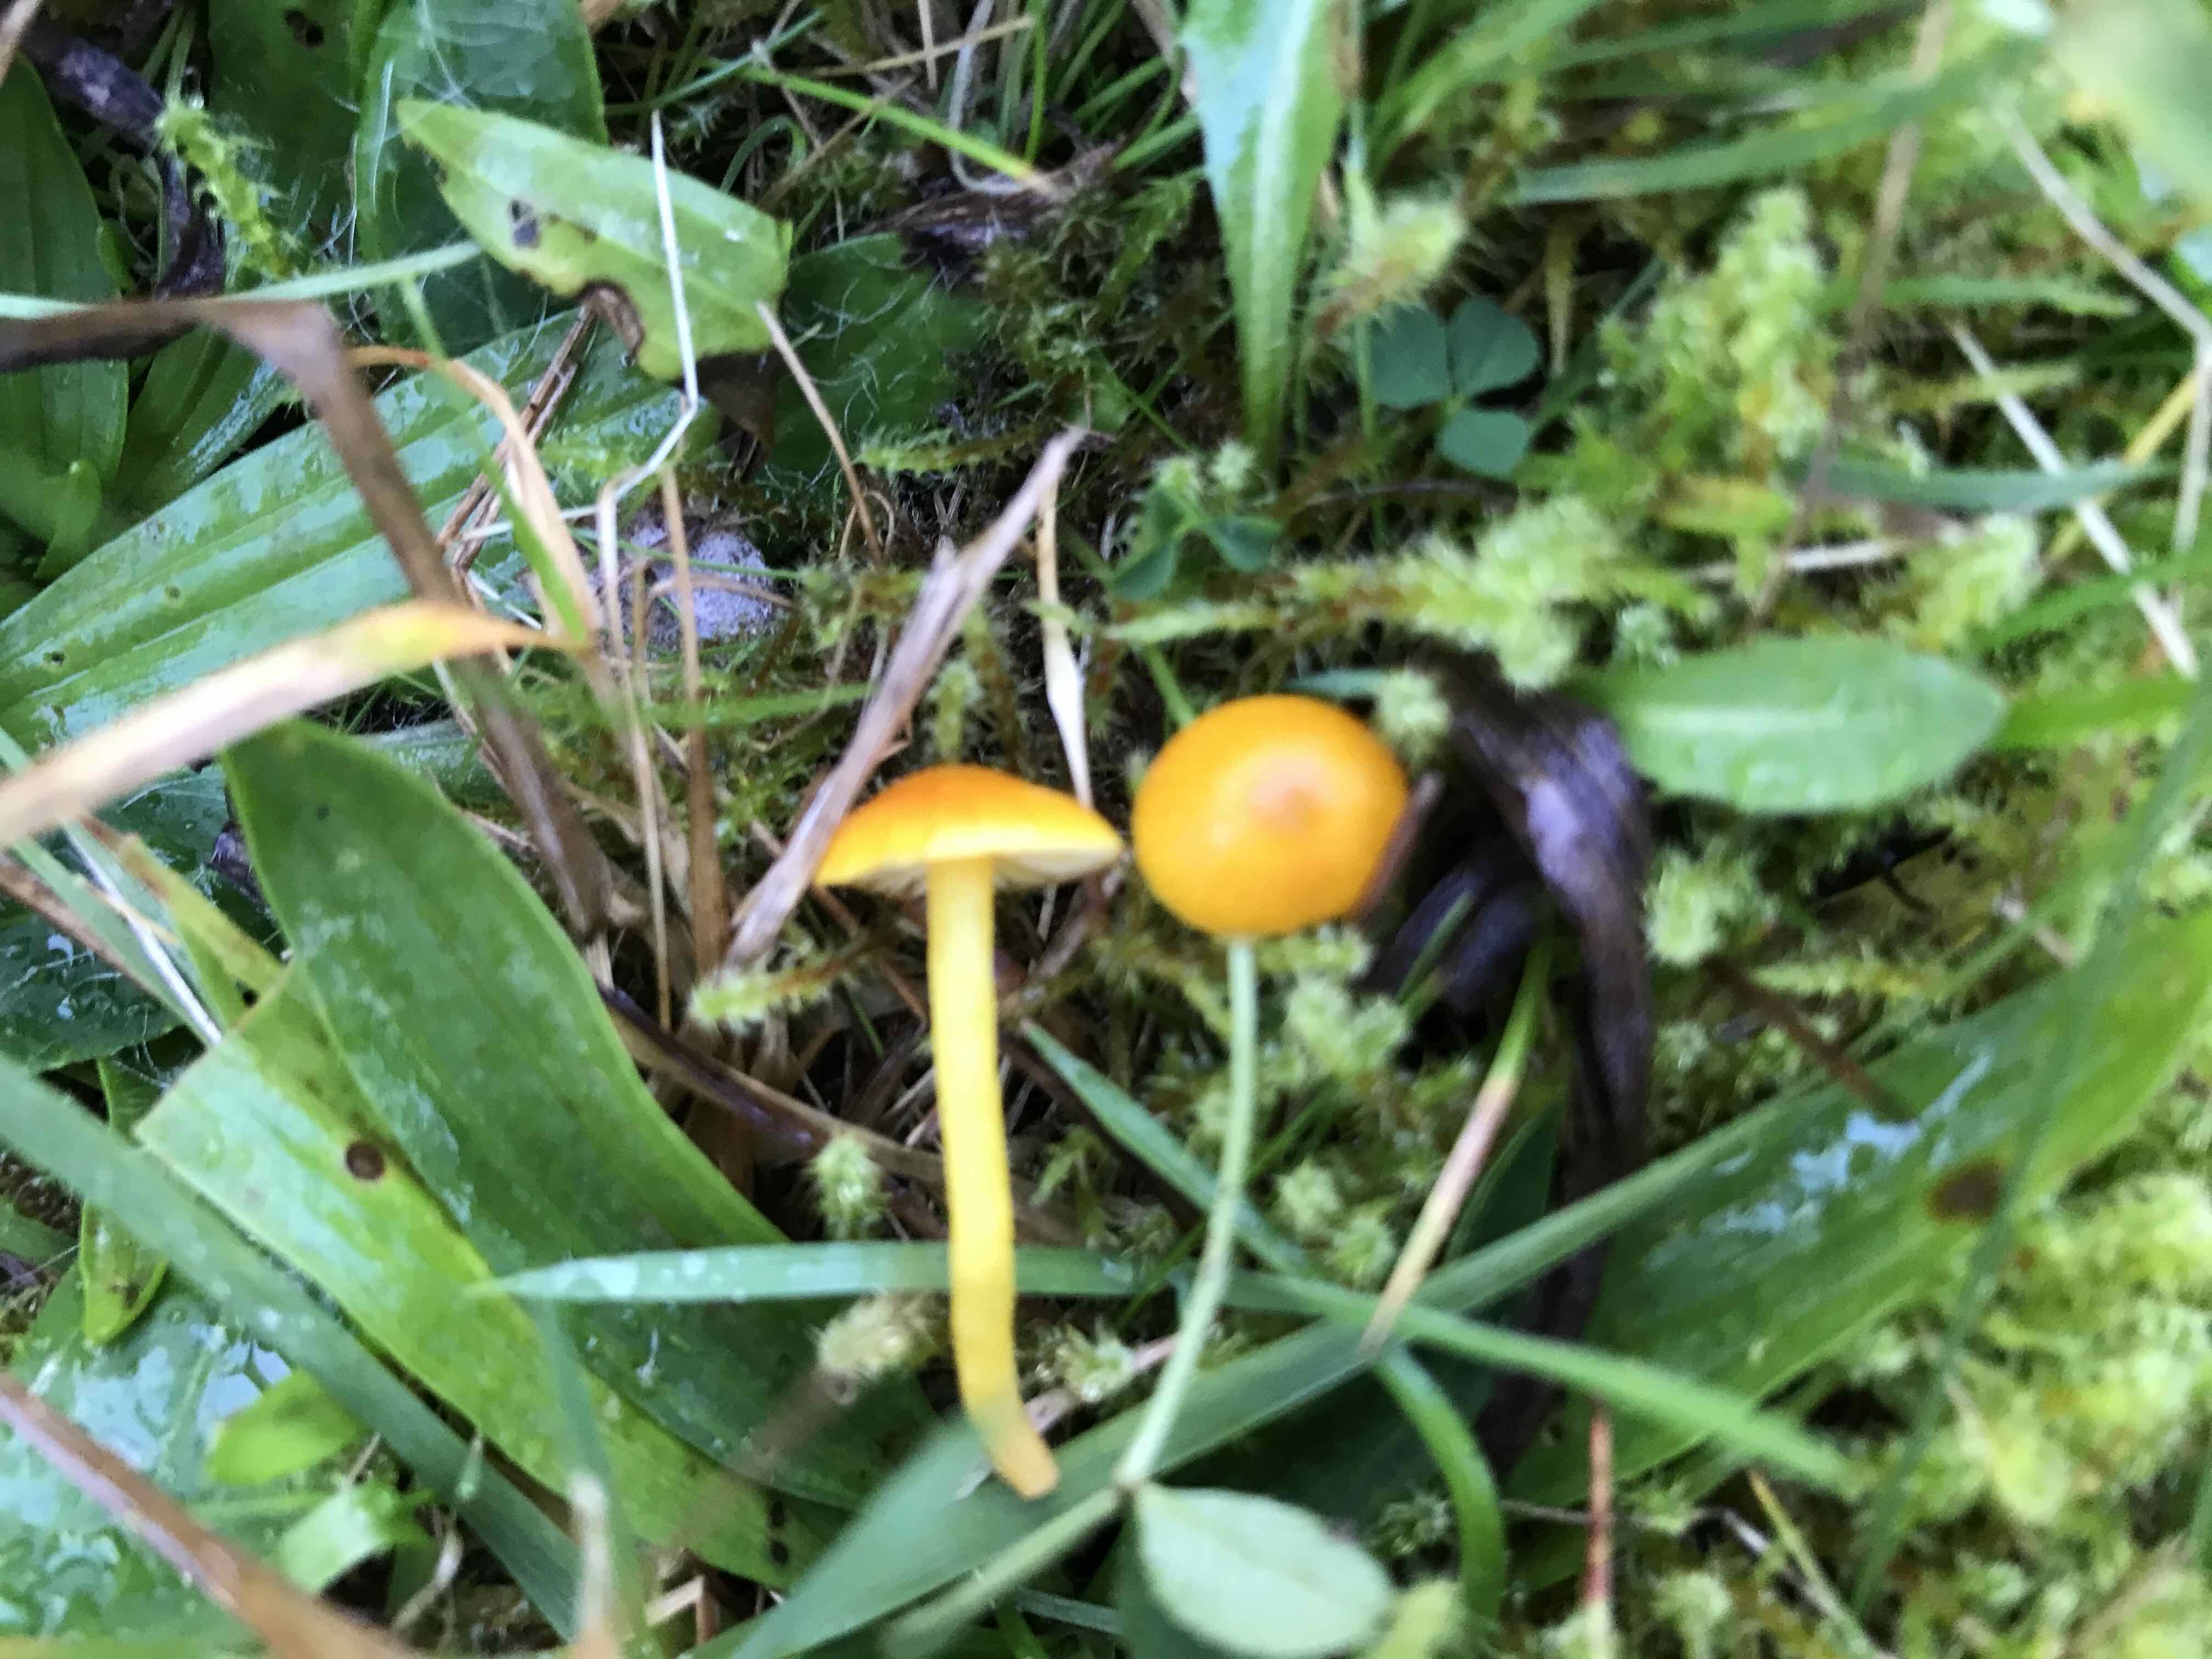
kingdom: Fungi
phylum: Basidiomycota
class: Agaricomycetes
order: Agaricales
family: Hygrophoraceae
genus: Hygrocybe
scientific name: Hygrocybe ceracea
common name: voksgul vokshat
